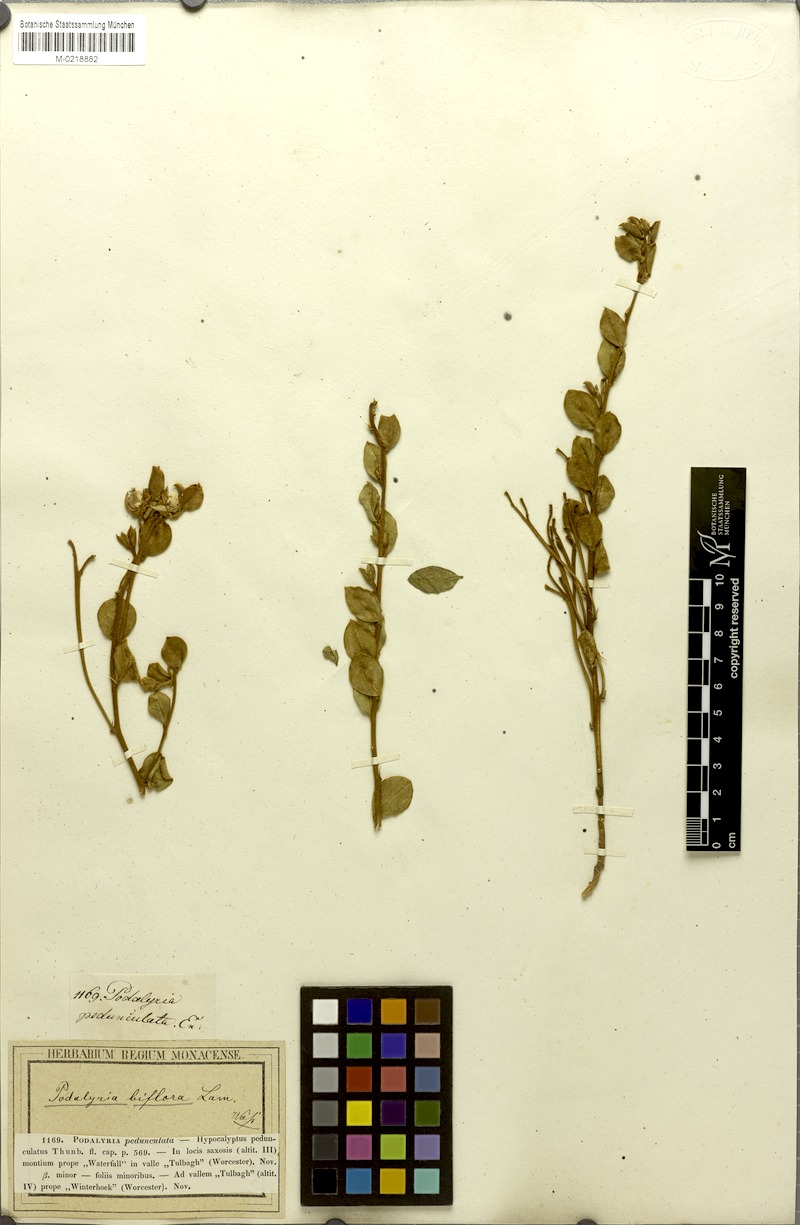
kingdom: Plantae
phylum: Tracheophyta
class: Magnoliopsida
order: Fabales
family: Fabaceae
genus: Podalyria
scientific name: Podalyria biflora
